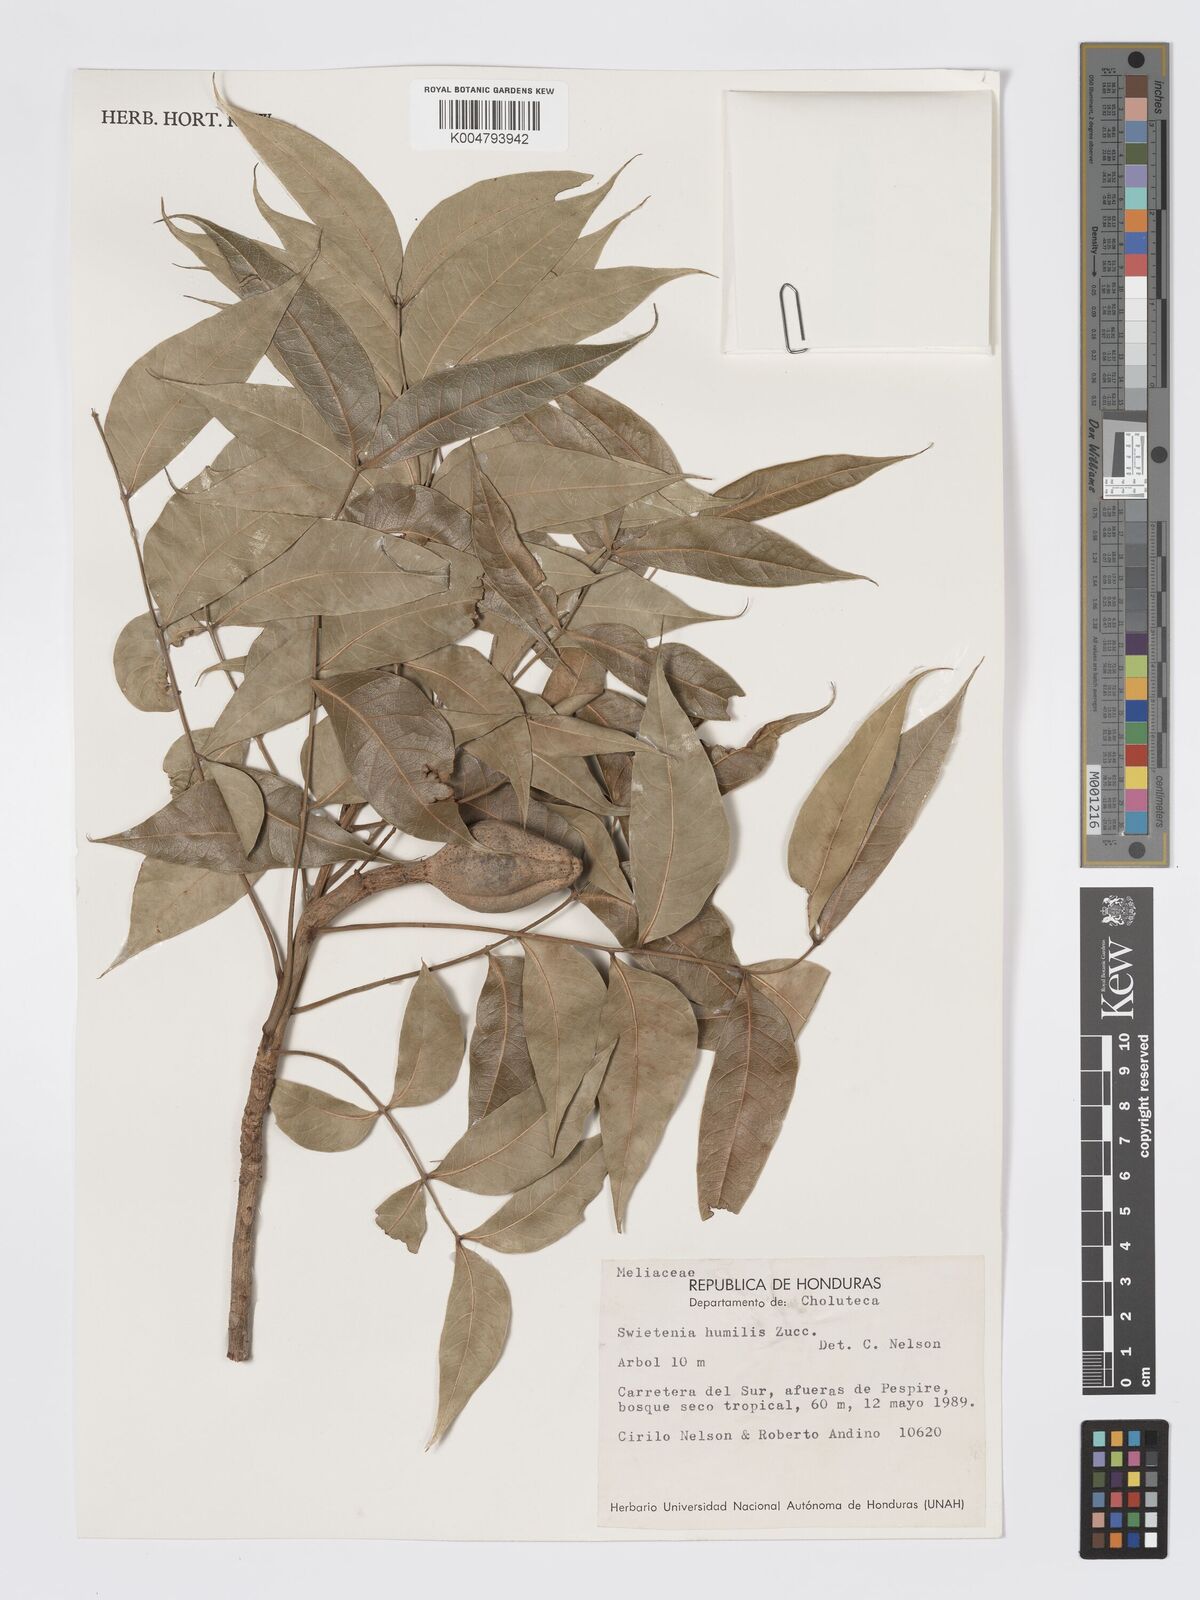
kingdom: Plantae
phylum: Tracheophyta
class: Magnoliopsida
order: Sapindales
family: Meliaceae
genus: Swietenia
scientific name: Swietenia humilis
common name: Pacific coast mahogany
